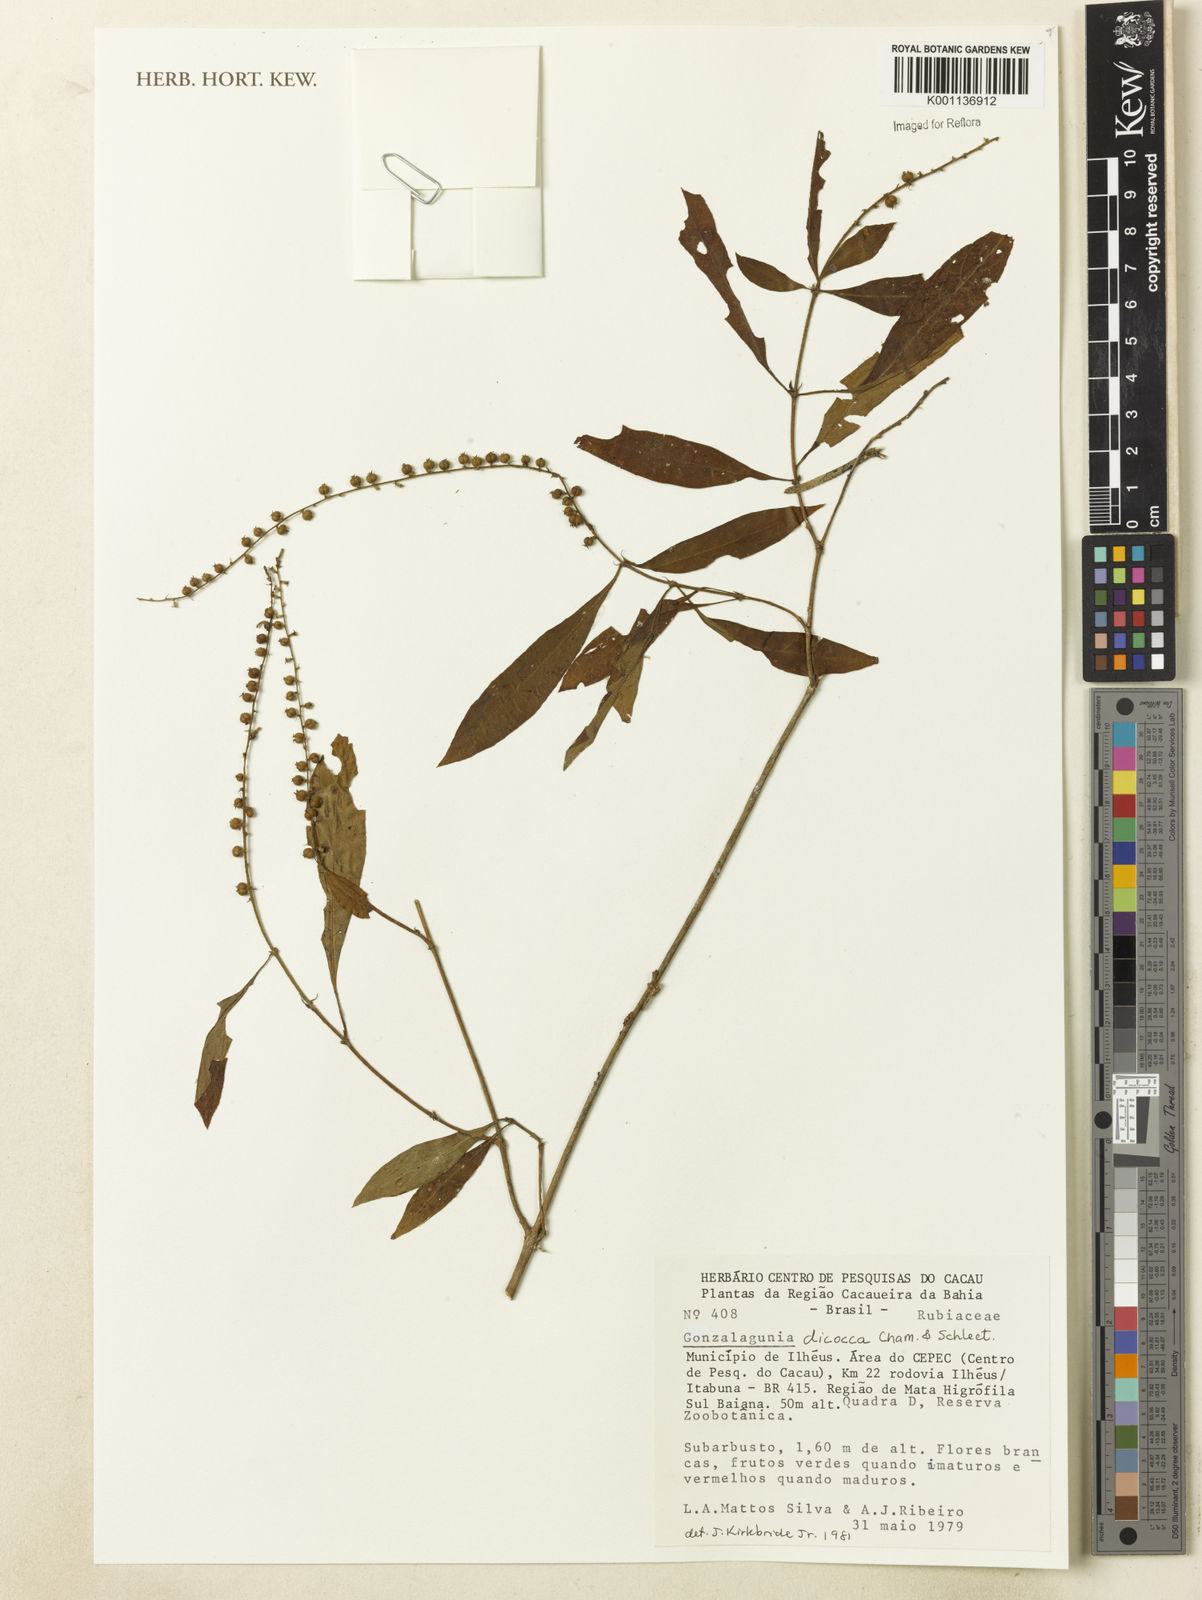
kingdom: Plantae
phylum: Tracheophyta
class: Magnoliopsida
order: Gentianales
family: Rubiaceae
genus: Gonzalagunia
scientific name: Gonzalagunia dicocca
